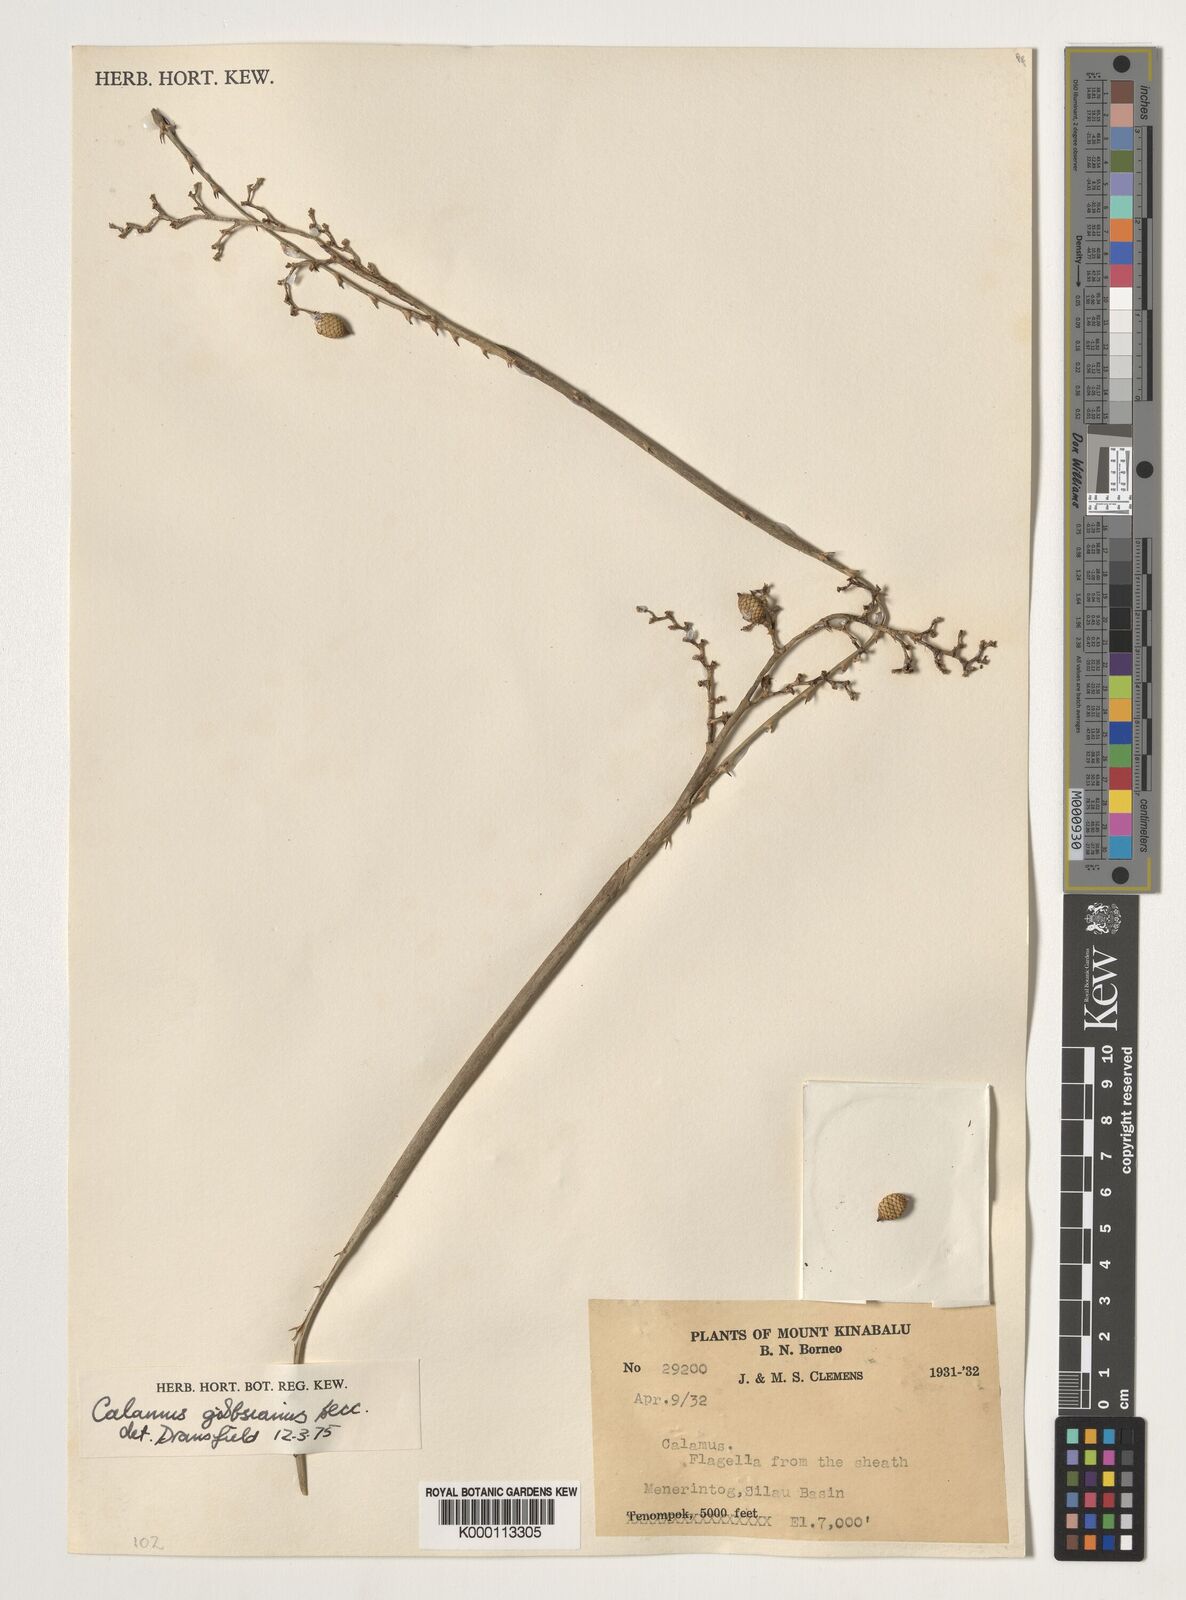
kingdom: Plantae
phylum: Tracheophyta
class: Liliopsida
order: Arecales
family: Arecaceae
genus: Calamus
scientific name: Calamus gibbsianus
